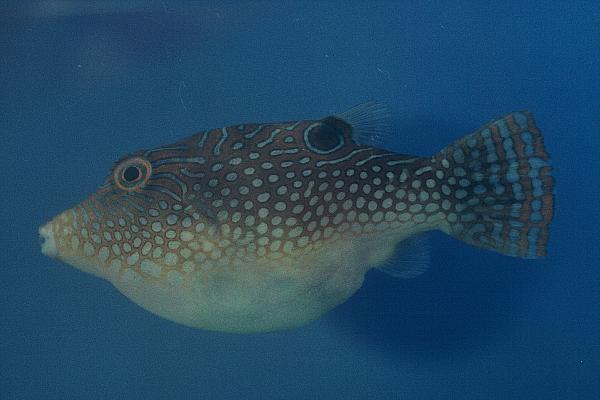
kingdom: Animalia
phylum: Chordata
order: Tetraodontiformes
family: Tetraodontidae
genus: Canthigaster
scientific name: Canthigaster solandri
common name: False-eye toby
